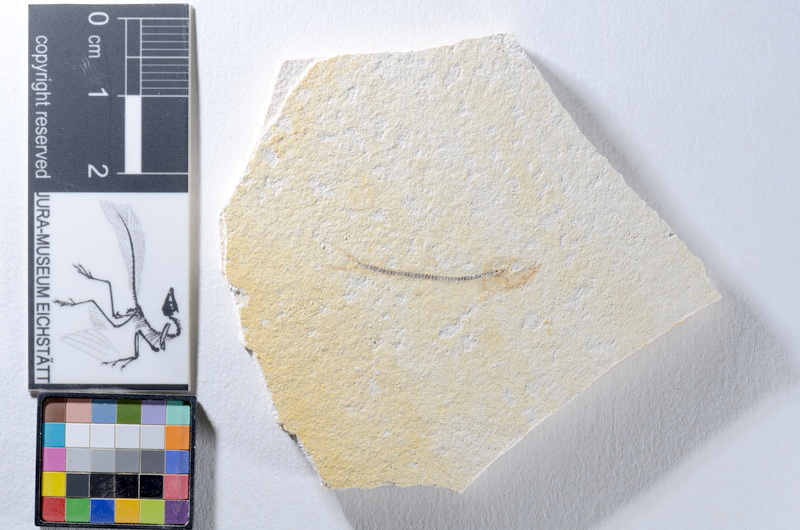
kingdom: Animalia
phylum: Chordata
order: Salmoniformes
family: Orthogonikleithridae
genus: Orthogonikleithrus
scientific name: Orthogonikleithrus hoelli
